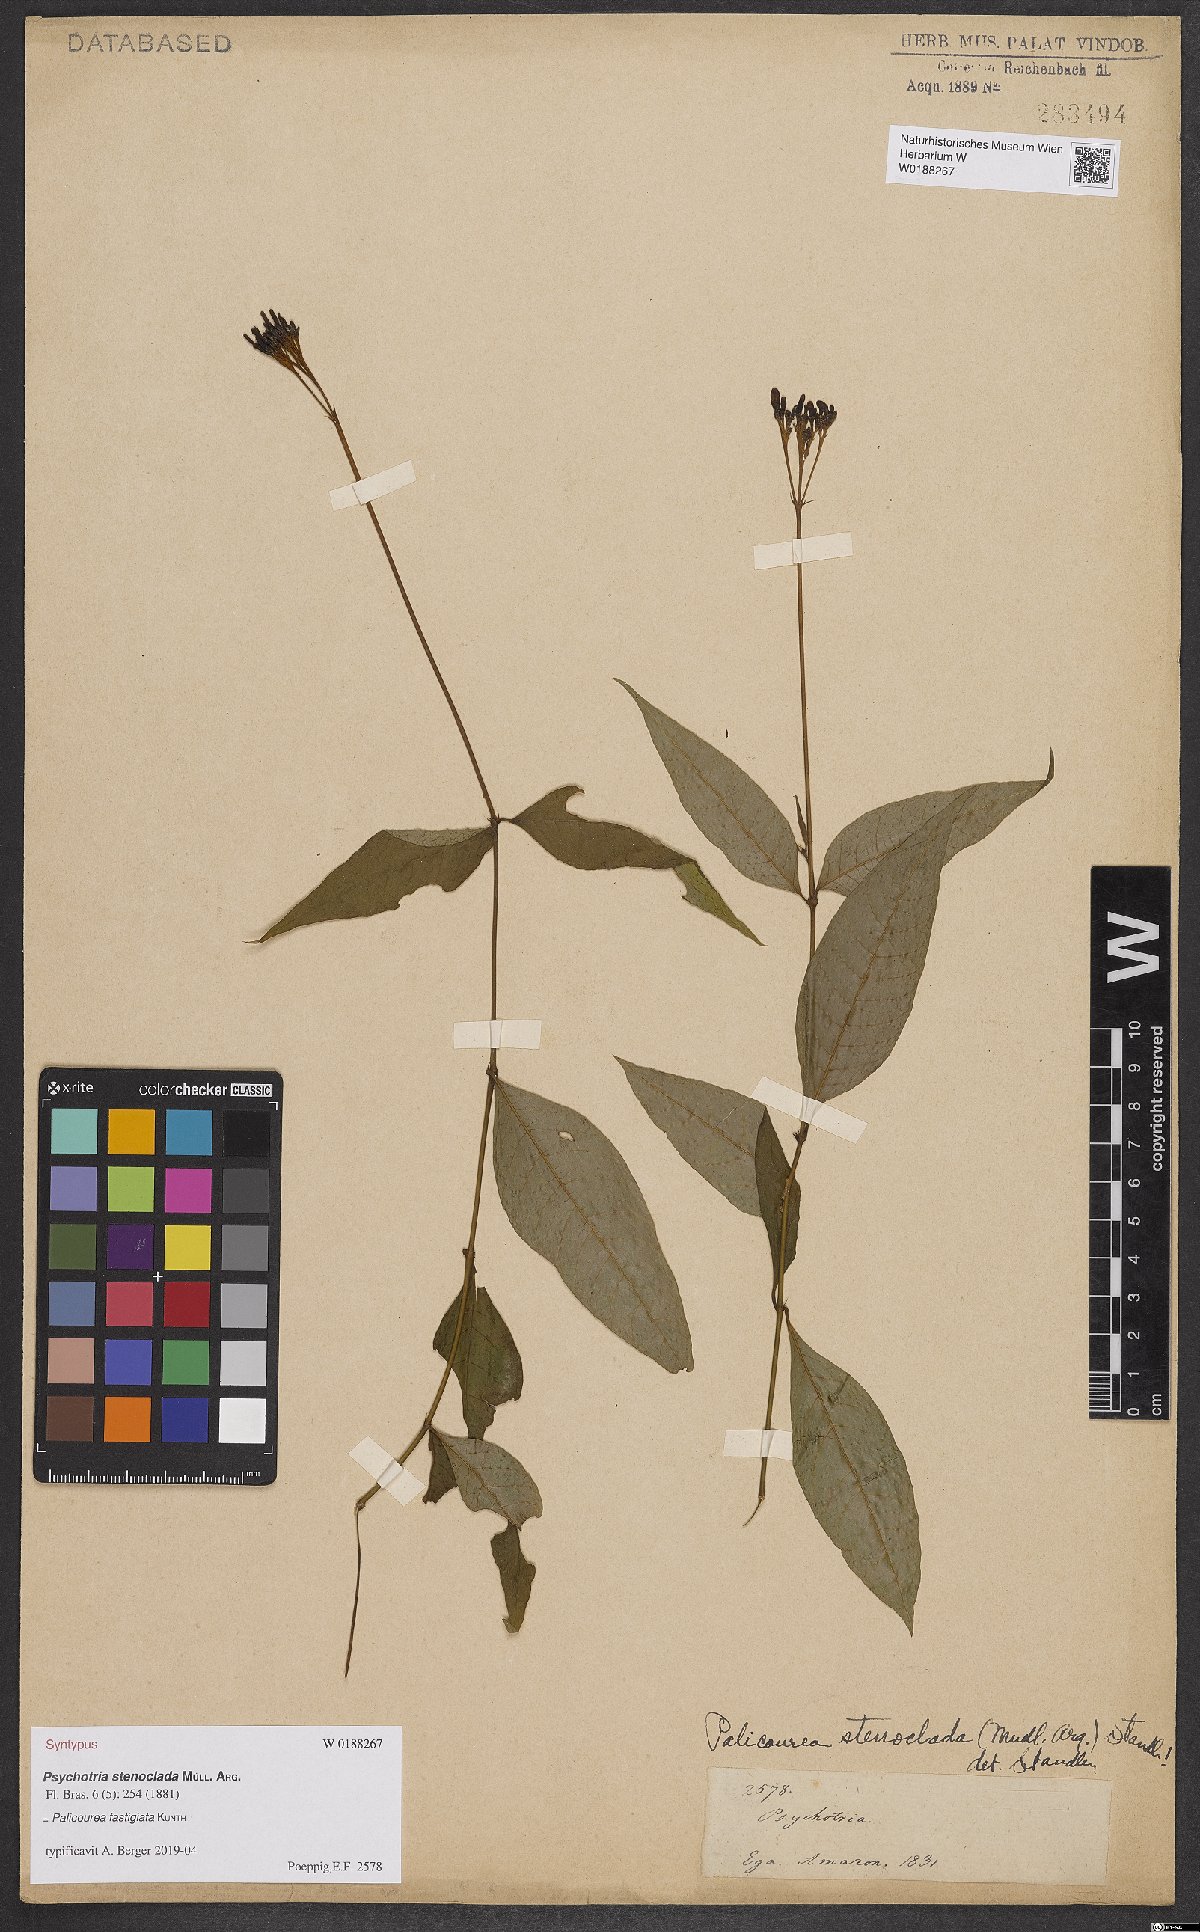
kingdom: Plantae
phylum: Tracheophyta
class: Magnoliopsida
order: Gentianales
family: Rubiaceae
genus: Palicourea
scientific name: Palicourea fastigiata
